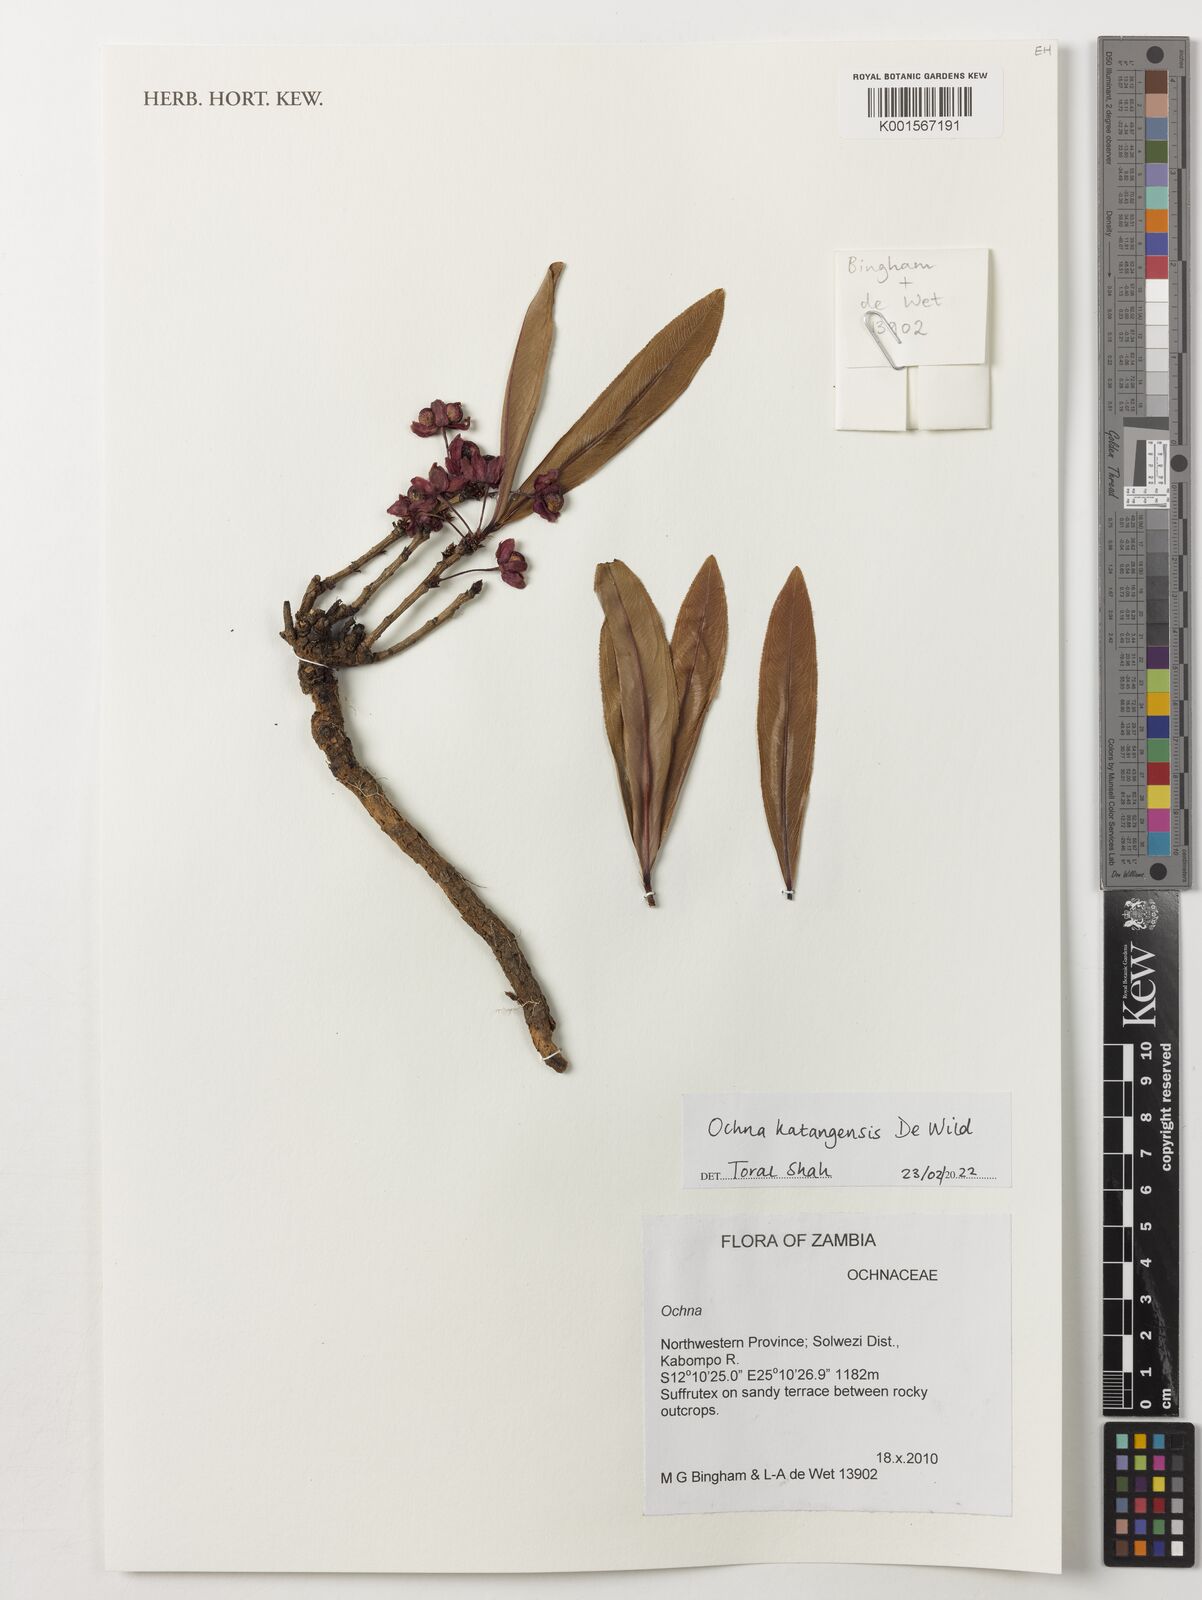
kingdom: Plantae
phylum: Tracheophyta
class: Magnoliopsida
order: Malpighiales
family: Ochnaceae
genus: Ochna
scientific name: Ochna katangensis
